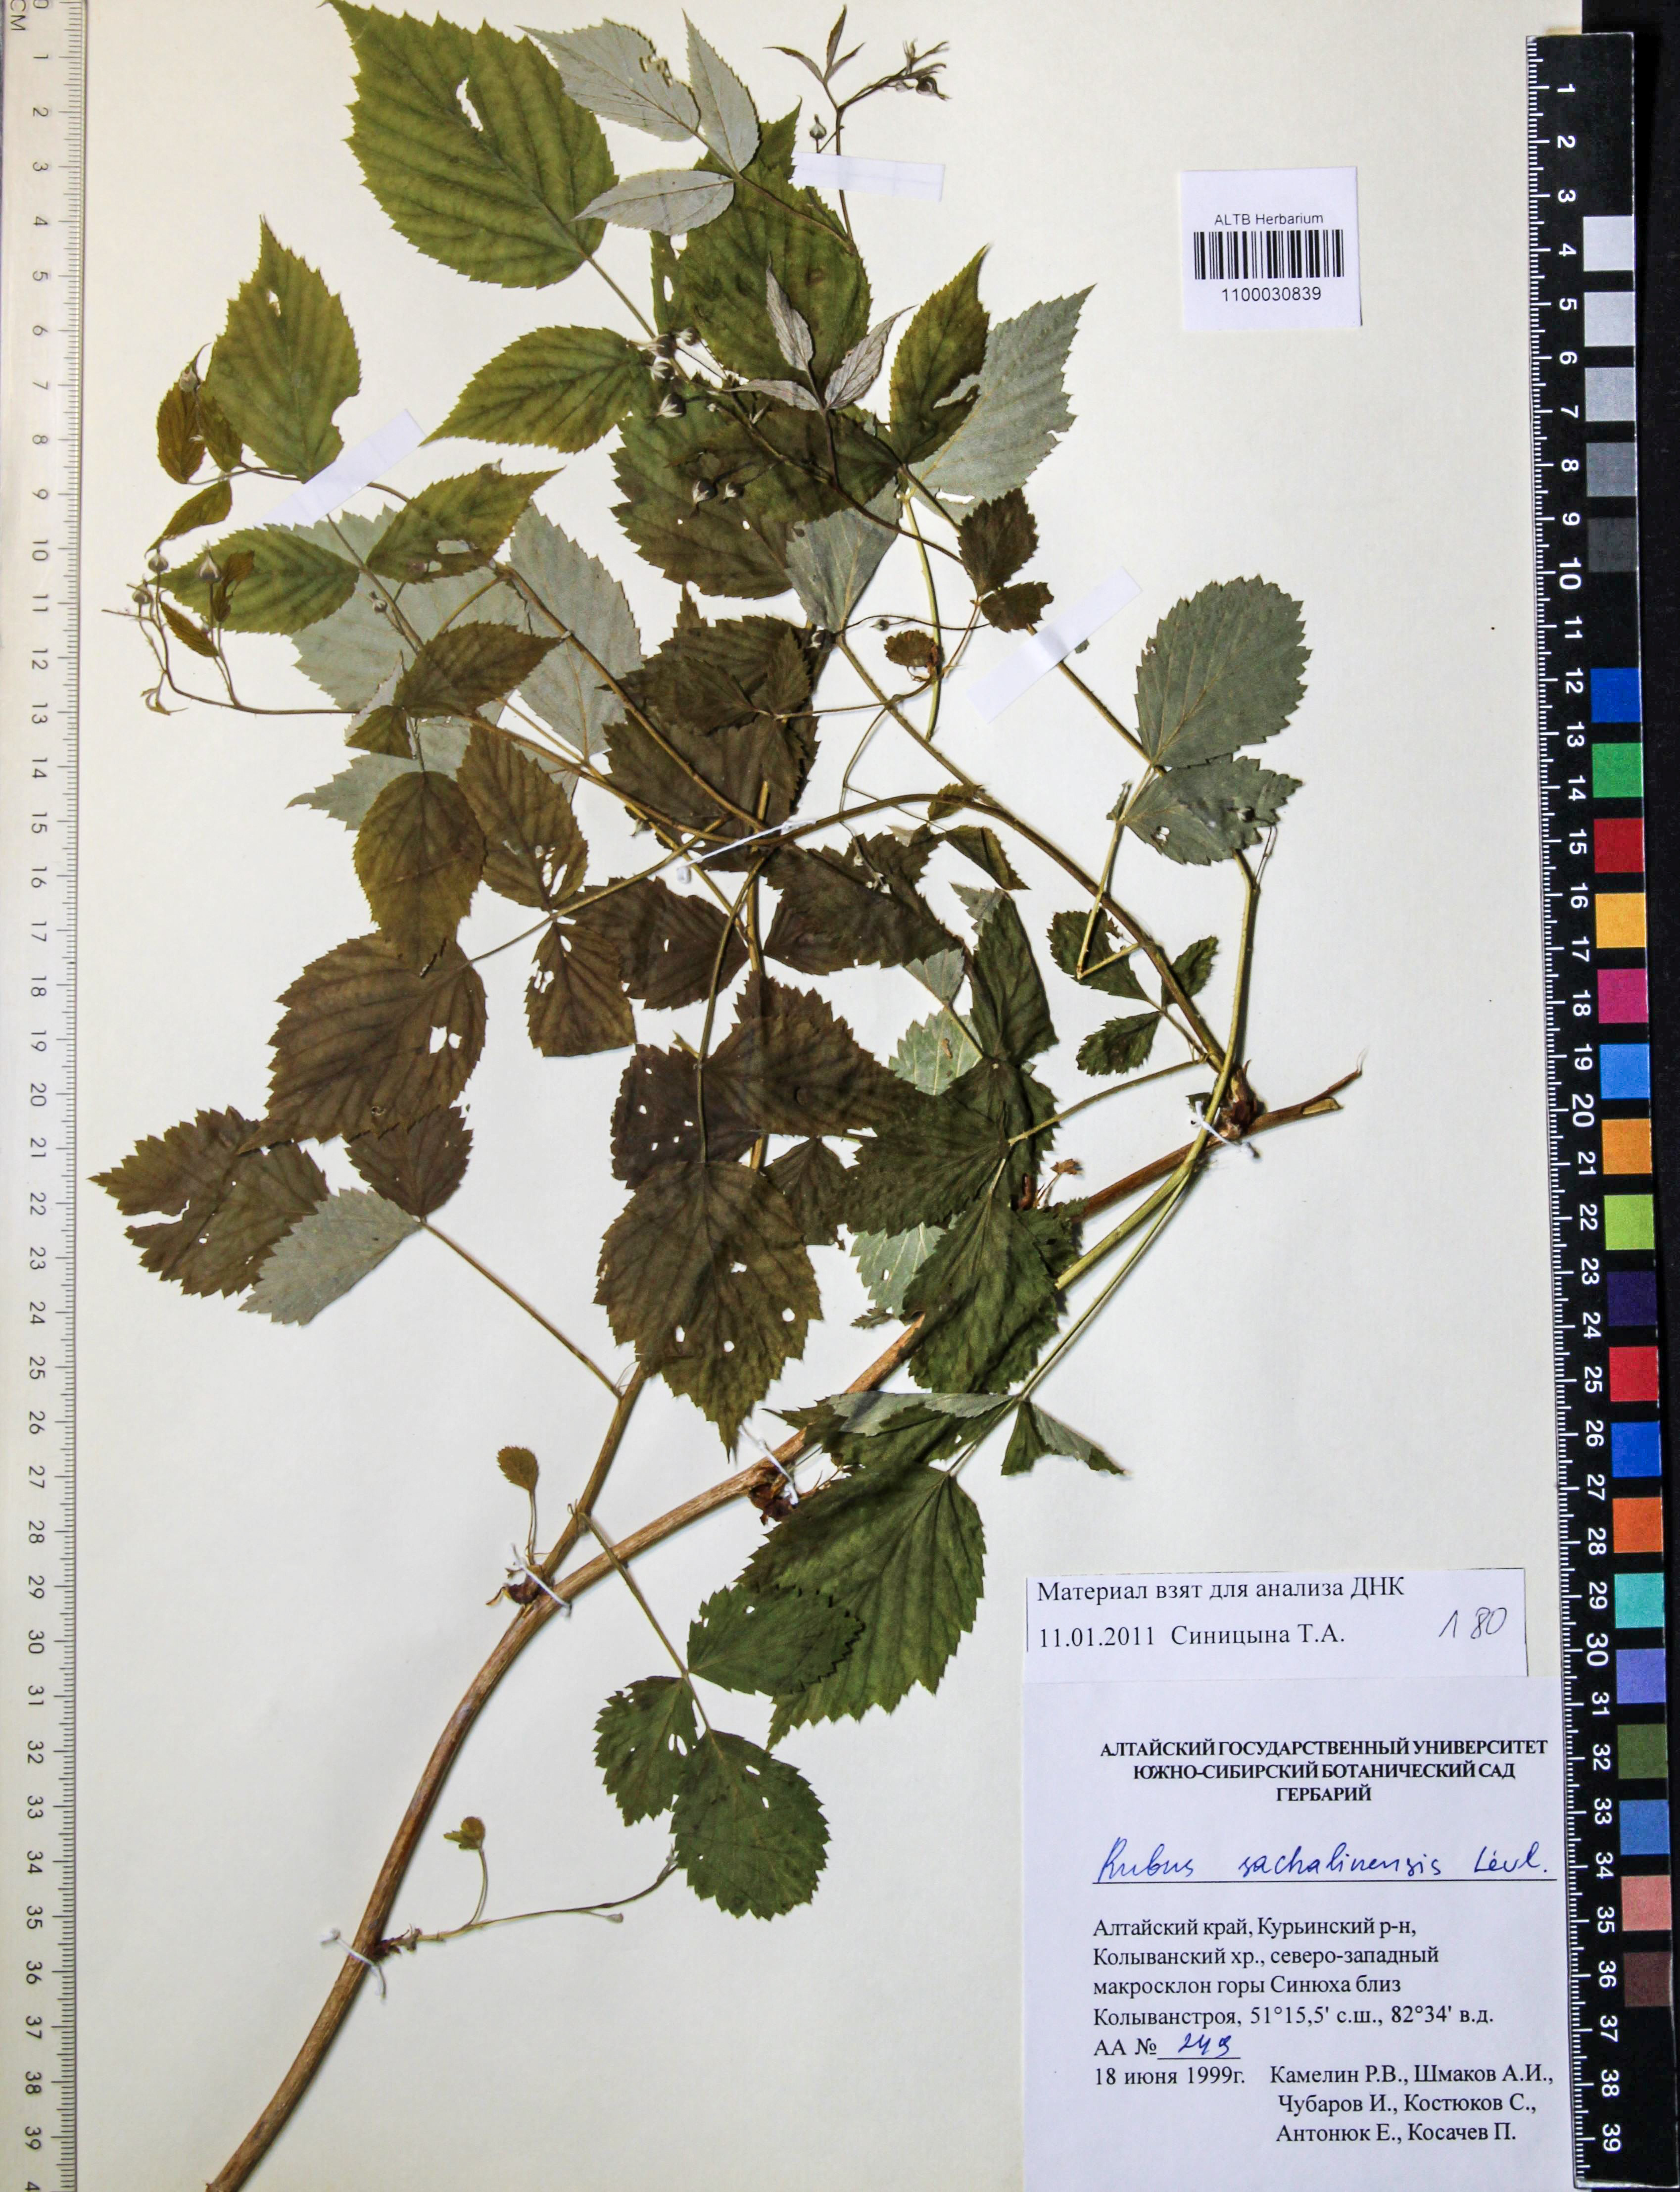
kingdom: Plantae
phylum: Tracheophyta
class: Magnoliopsida
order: Rosales
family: Rosaceae
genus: Rubus
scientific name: Rubus sachalinensis
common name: Red raspberry
